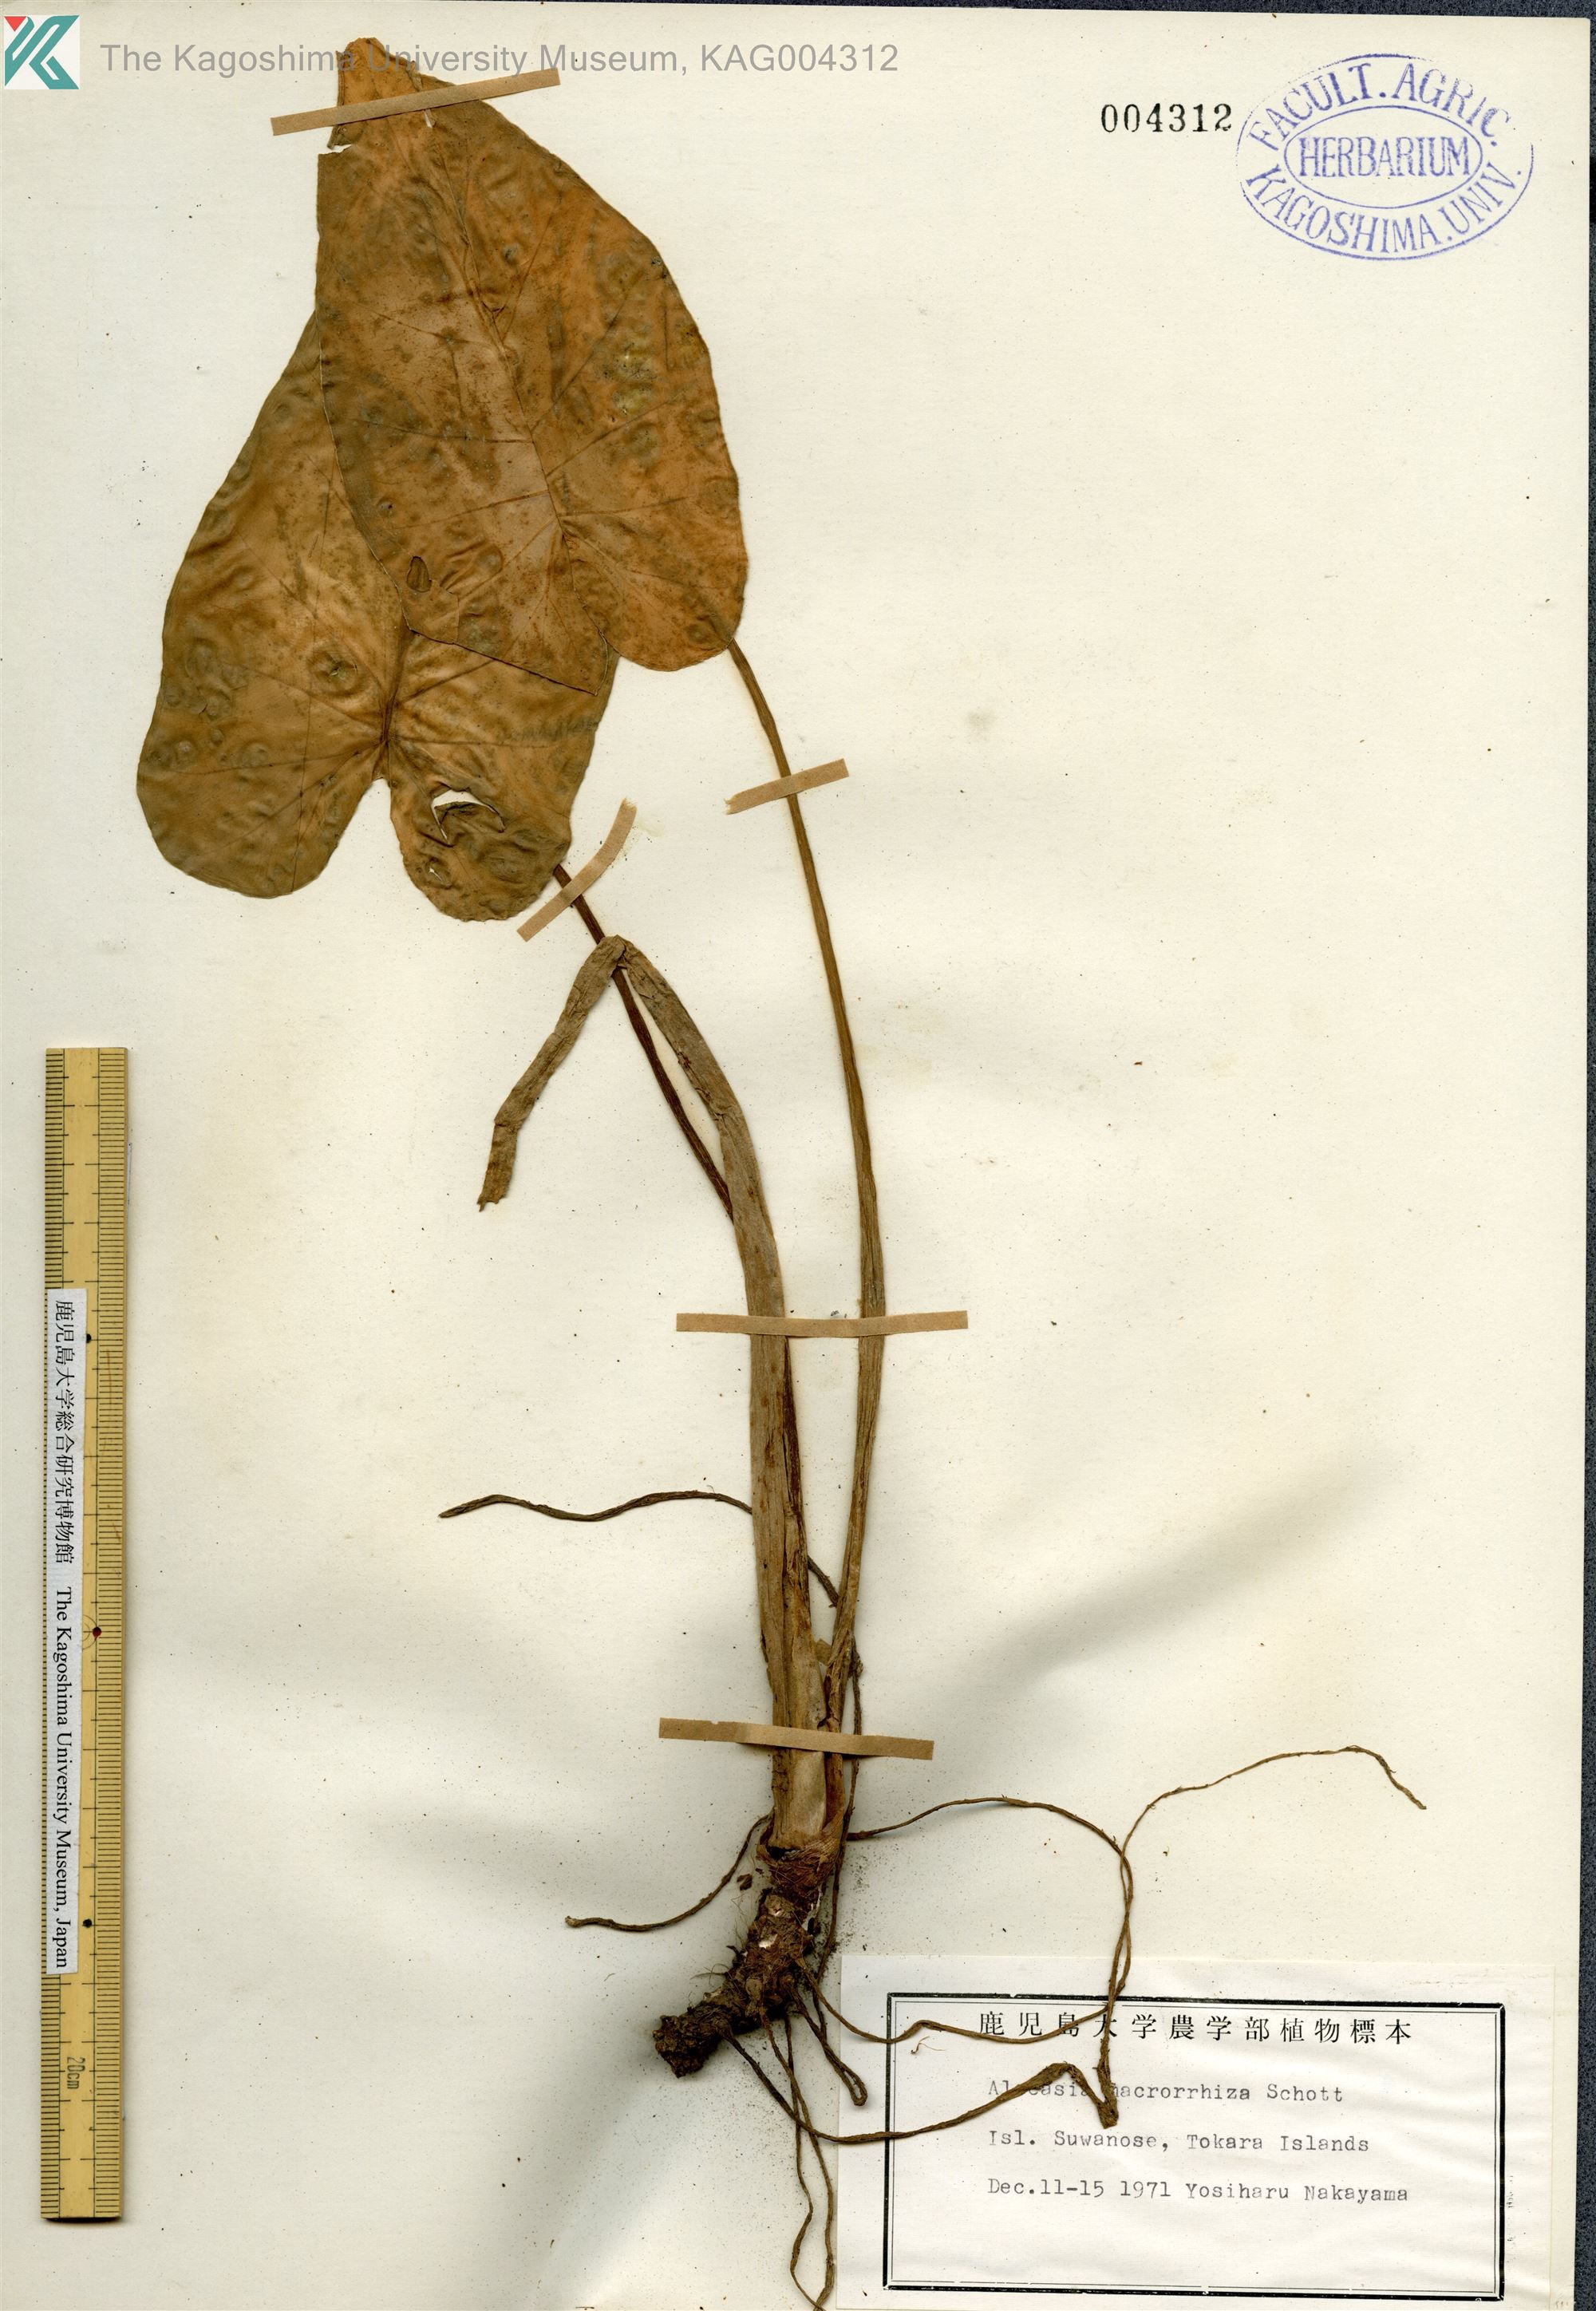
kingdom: Plantae
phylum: Tracheophyta
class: Liliopsida
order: Alismatales
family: Araceae
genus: Alocasia
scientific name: Alocasia odora
